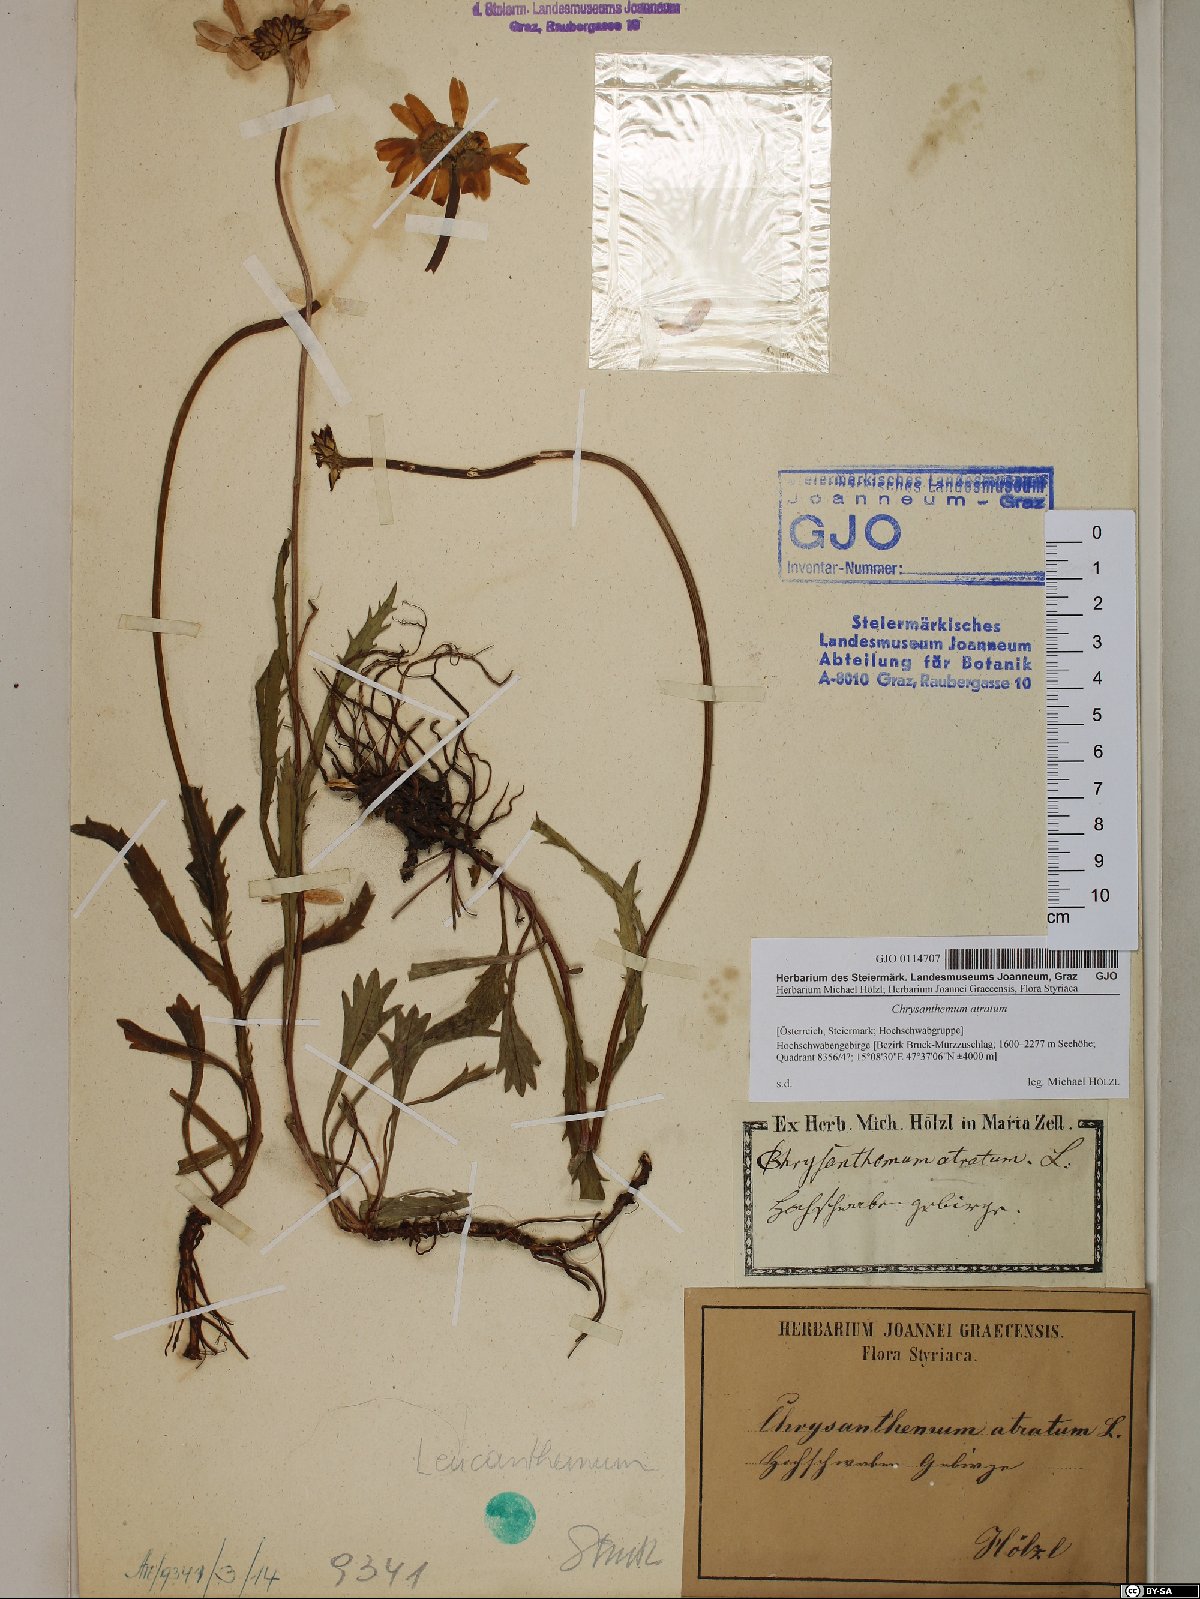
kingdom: Plantae
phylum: Tracheophyta
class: Magnoliopsida
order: Asterales
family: Asteraceae
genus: Leucanthemum
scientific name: Leucanthemum atratum
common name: Saw-leaved moon-daisy
